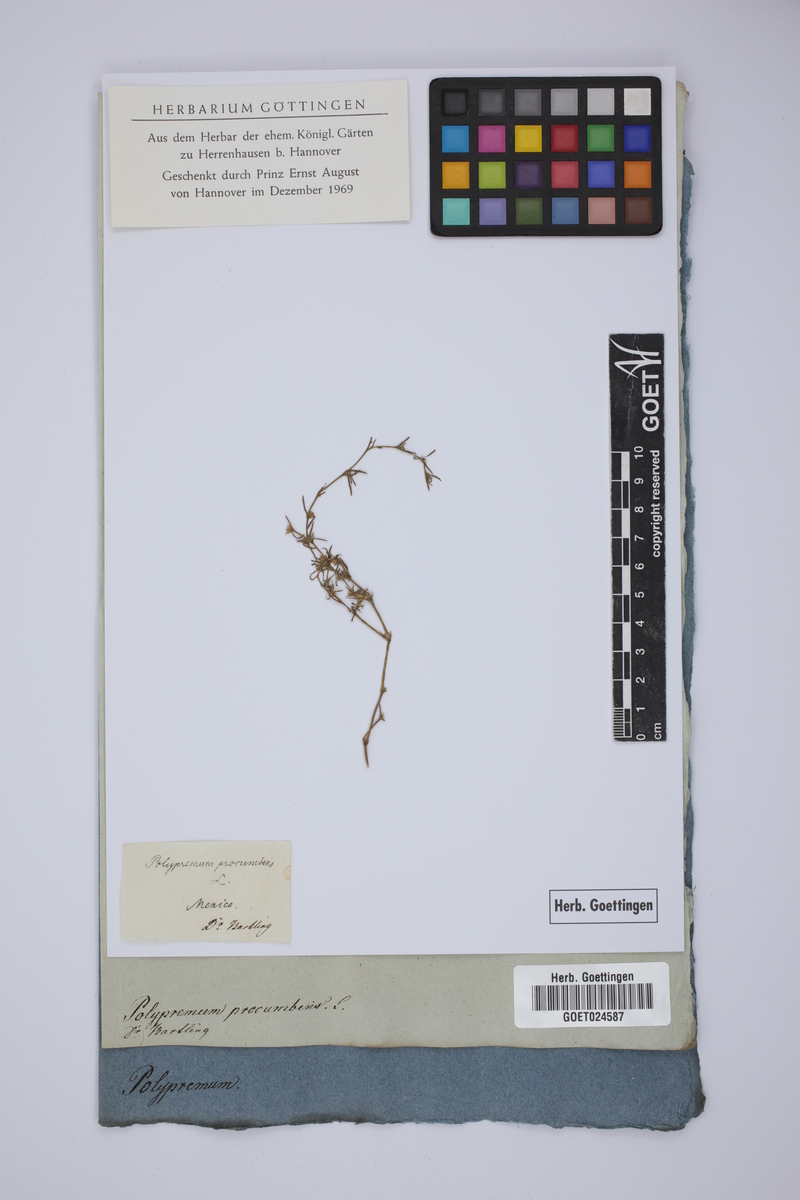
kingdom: Plantae
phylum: Tracheophyta
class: Magnoliopsida
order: Lamiales
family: Tetrachondraceae
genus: Polypremum
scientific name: Polypremum procumbens
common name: Juniper-leaf
